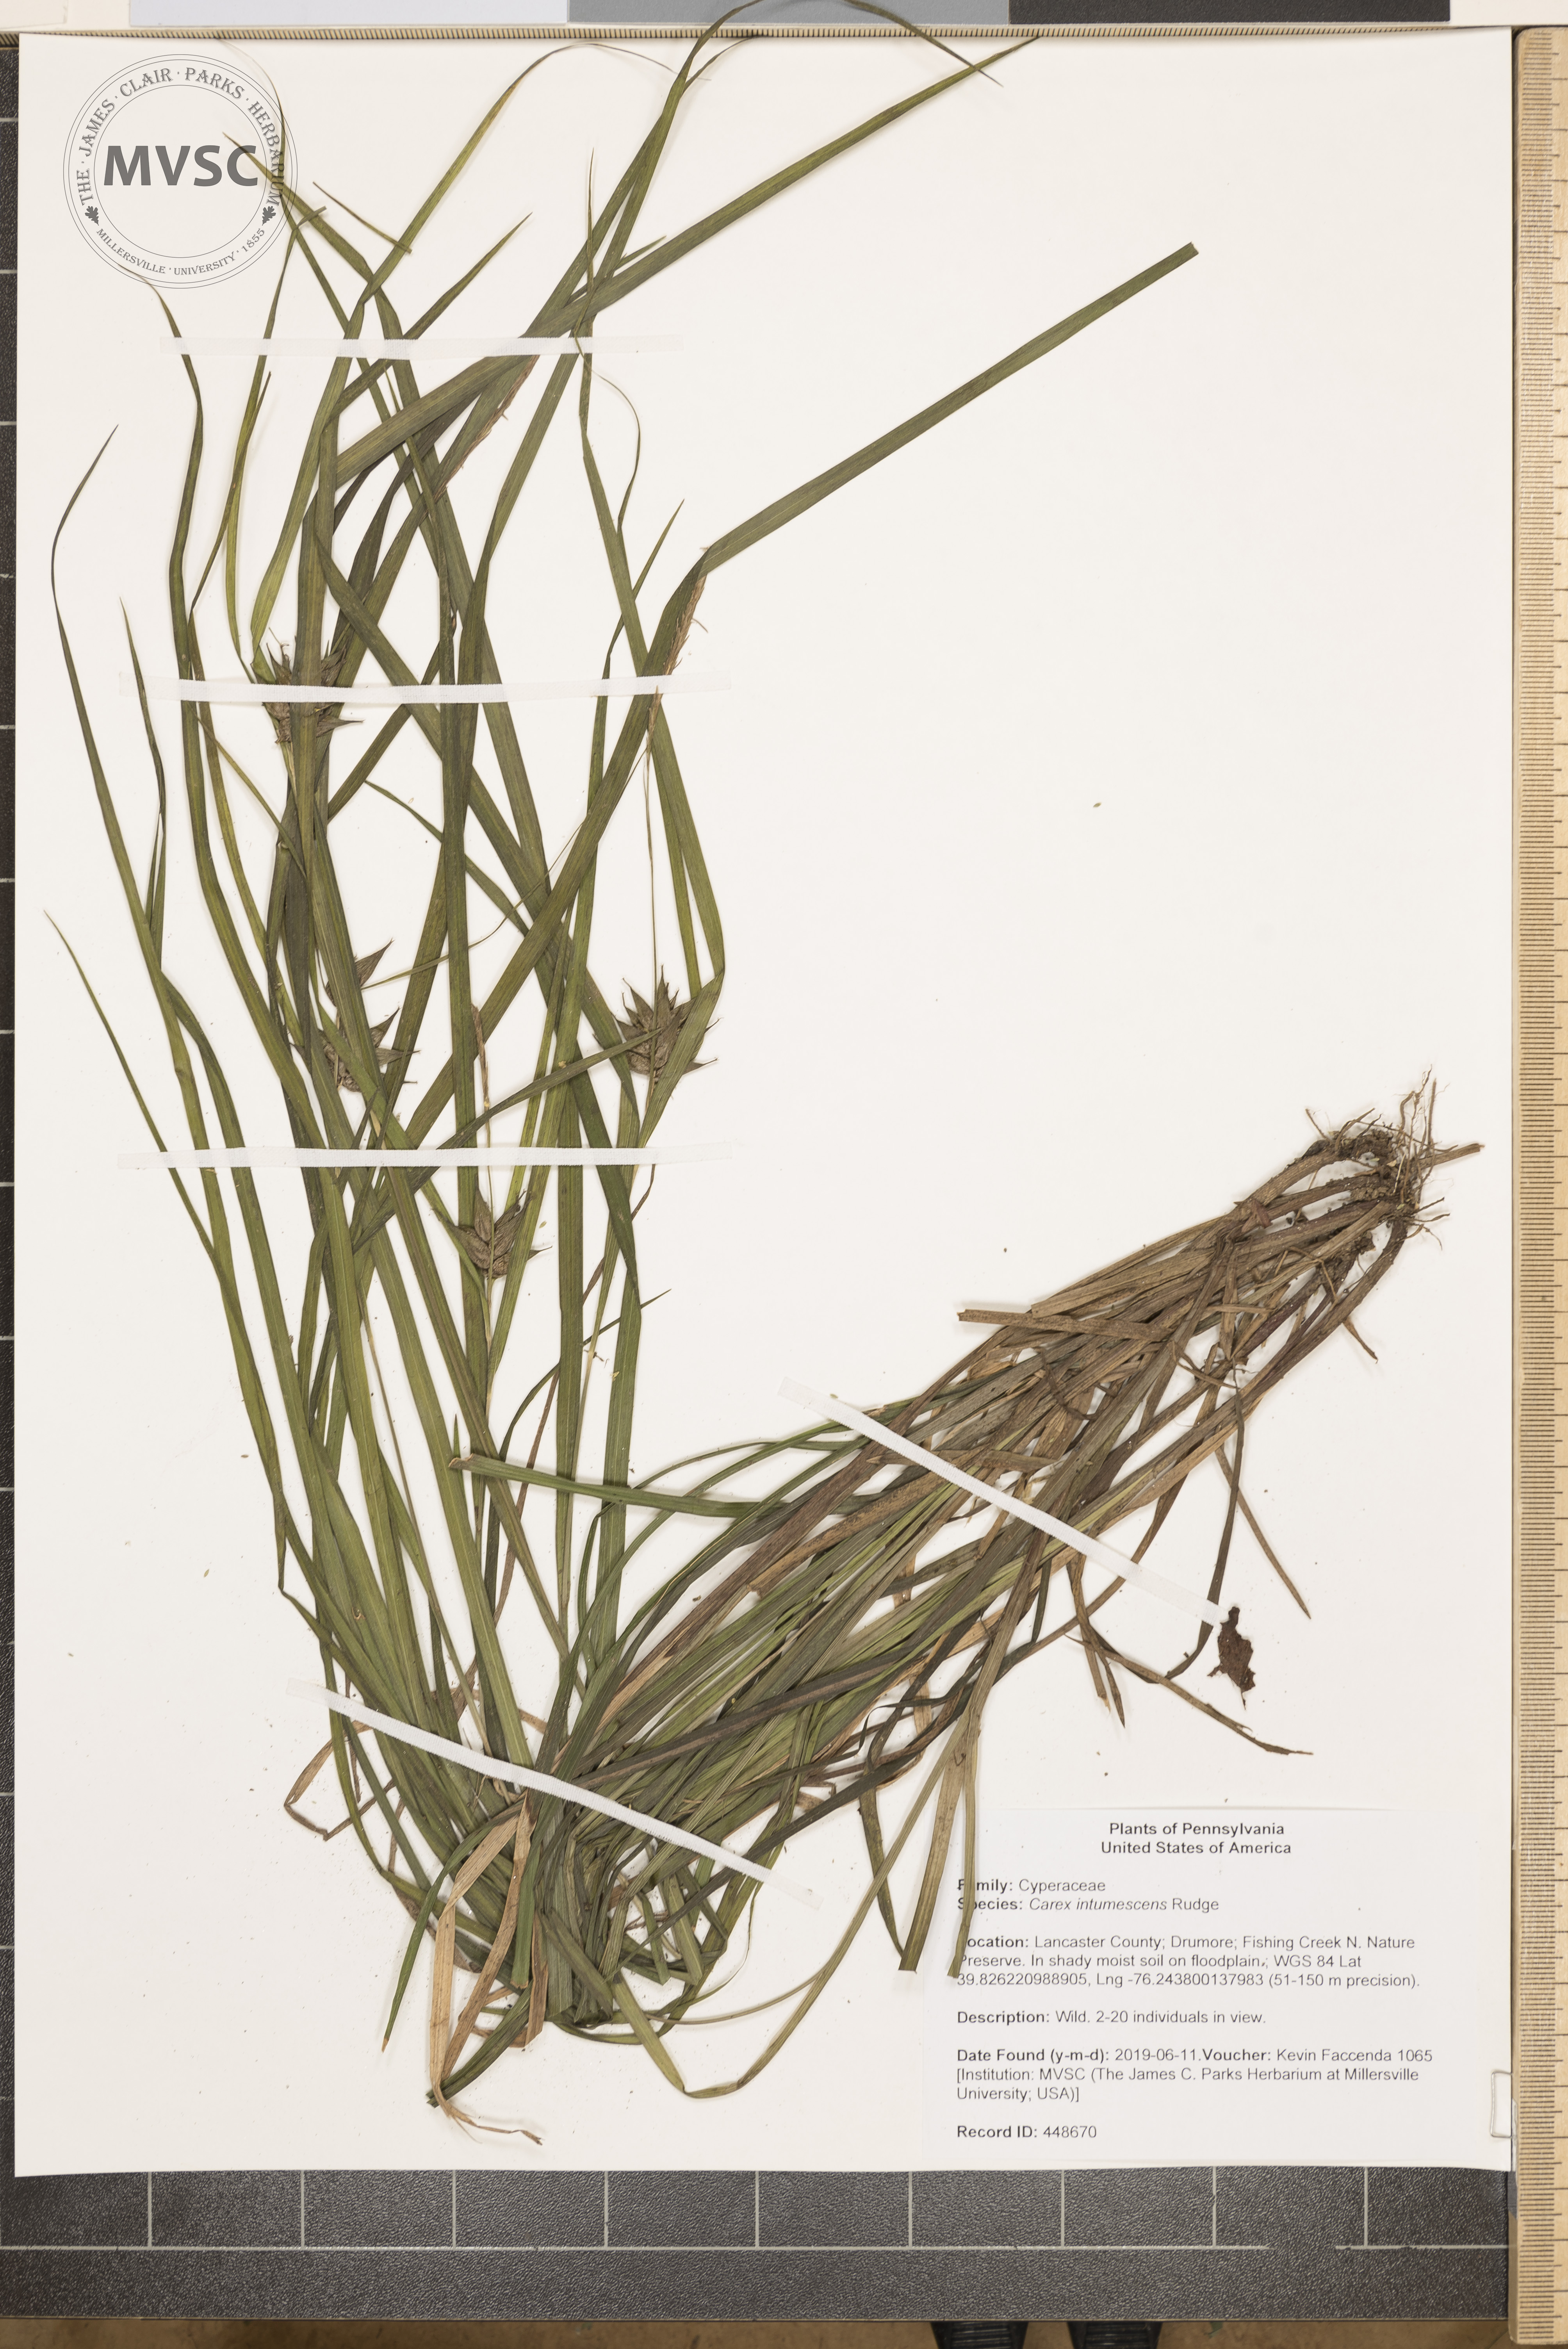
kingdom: Plantae
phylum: Tracheophyta
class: Liliopsida
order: Poales
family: Cyperaceae
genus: Carex
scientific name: Carex intumescens
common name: Greater bladder sedge
